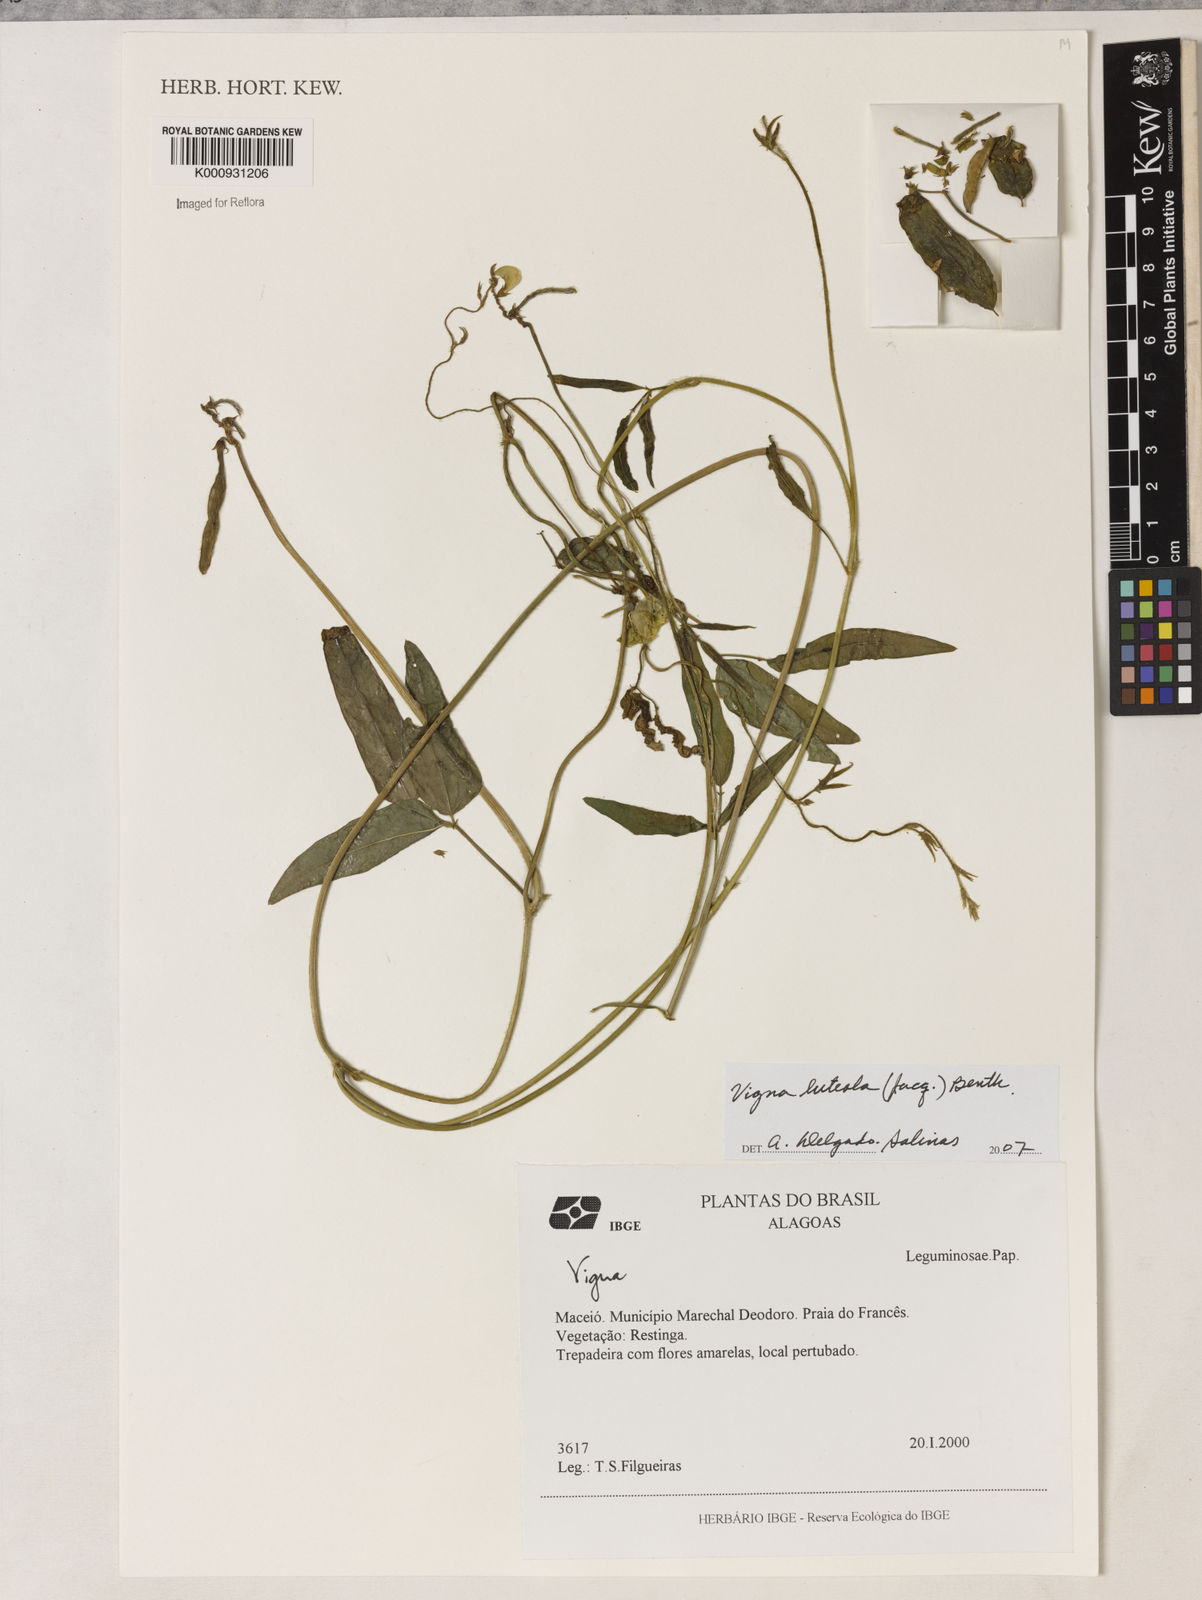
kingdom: Plantae
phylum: Tracheophyta
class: Magnoliopsida
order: Fabales
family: Fabaceae
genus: Vigna
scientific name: Vigna luteola
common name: Hairypod cowpea
